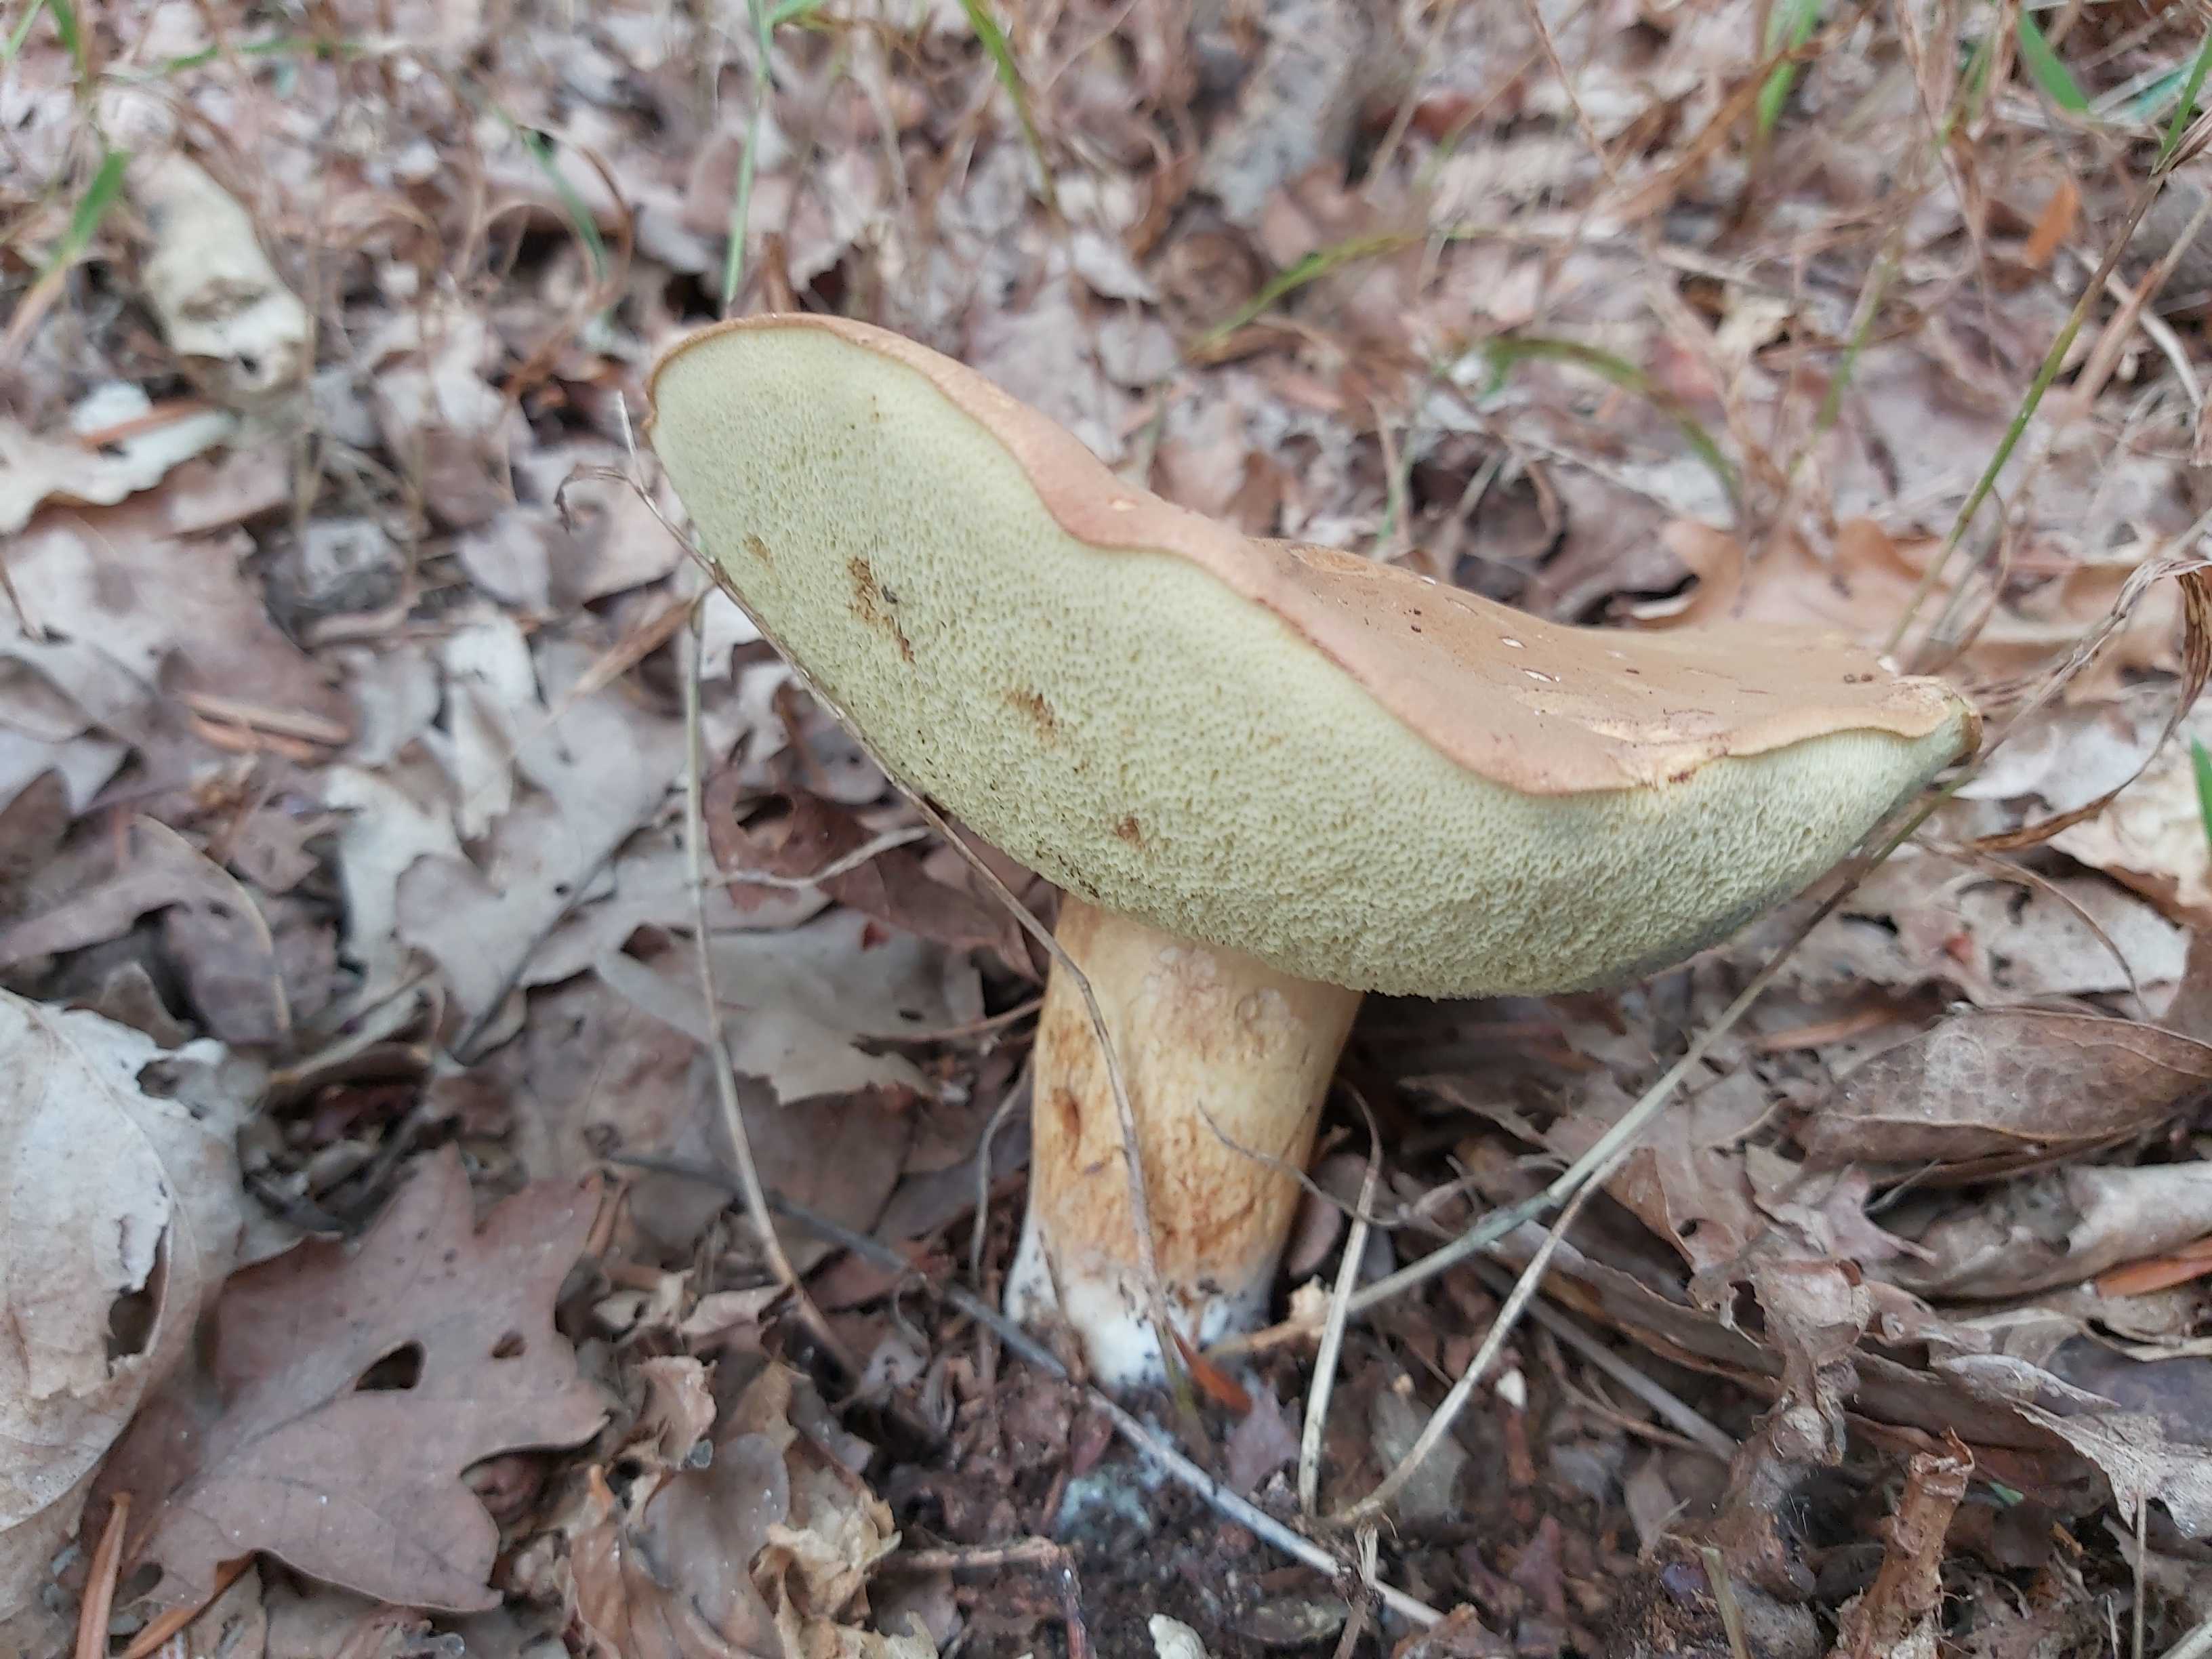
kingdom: Fungi
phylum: Basidiomycota
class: Agaricomycetes
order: Boletales
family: Boletaceae
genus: Imleria
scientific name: Imleria badia
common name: brunstokket rørhat
